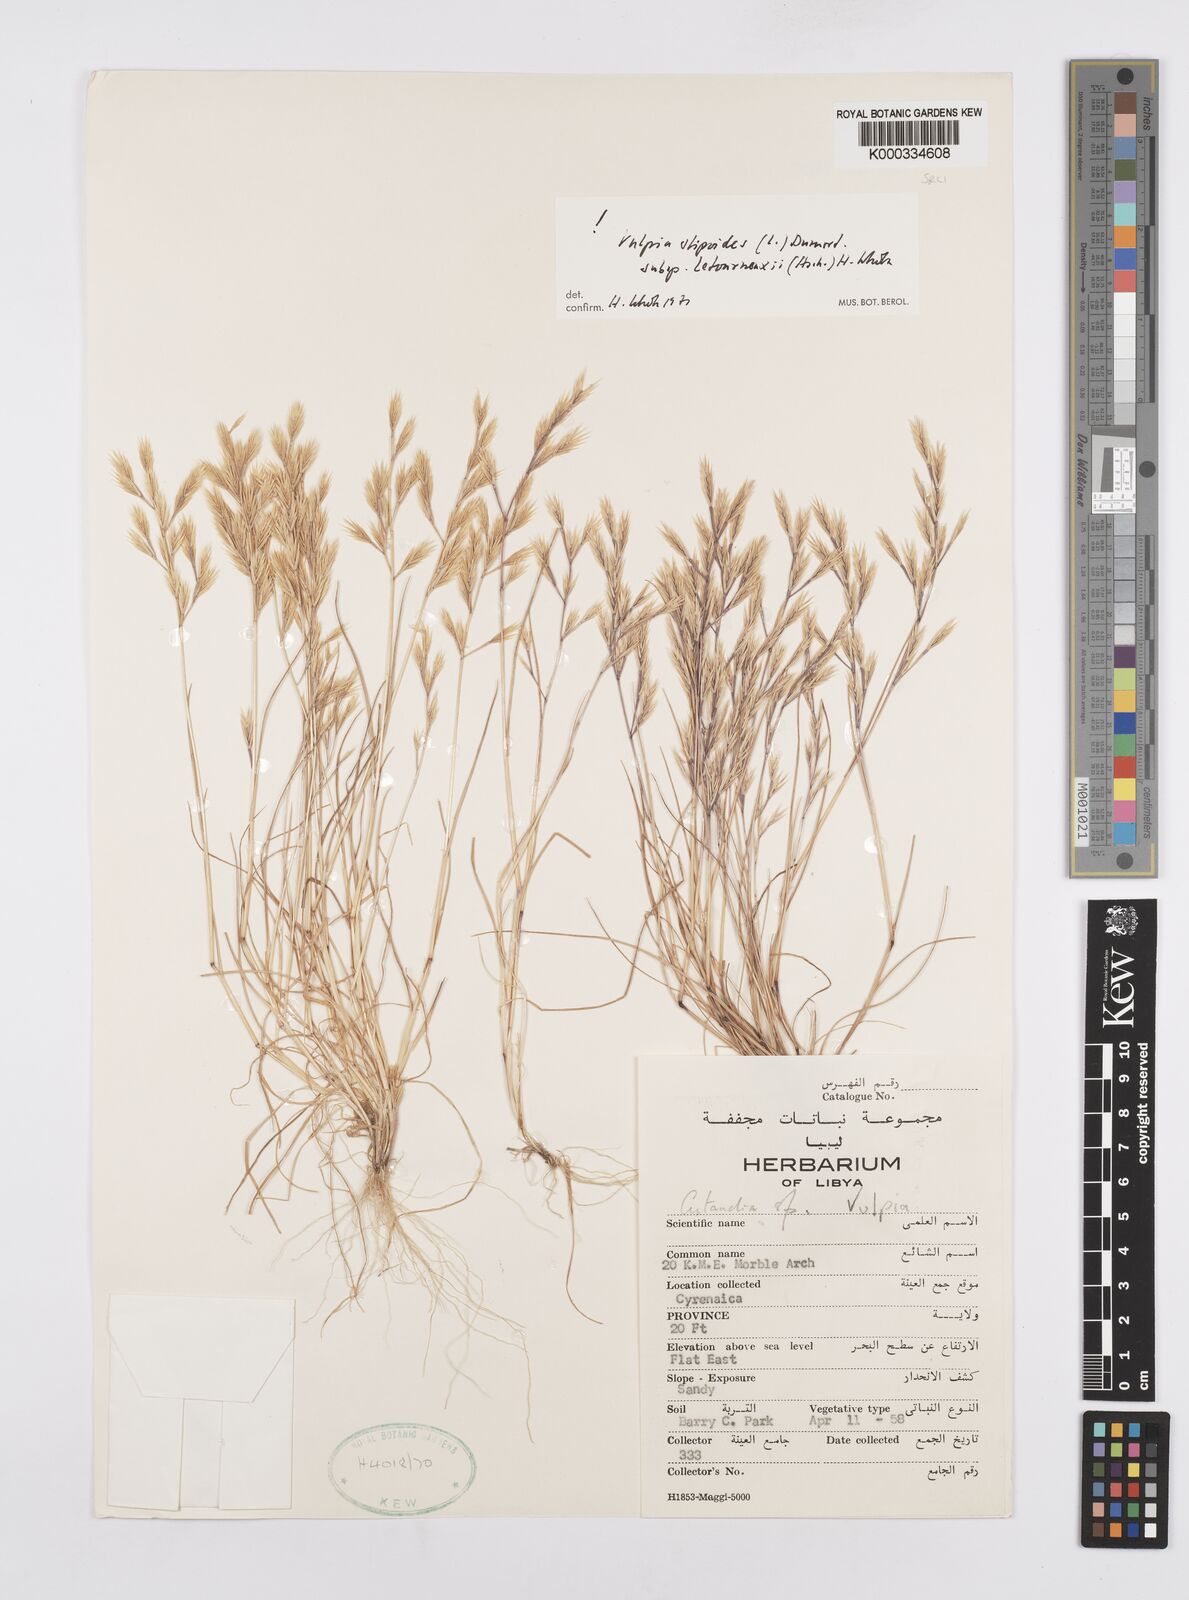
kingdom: Plantae
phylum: Tracheophyta
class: Liliopsida
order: Poales
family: Poaceae
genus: Vulpiella
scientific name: Vulpiella stipoides
